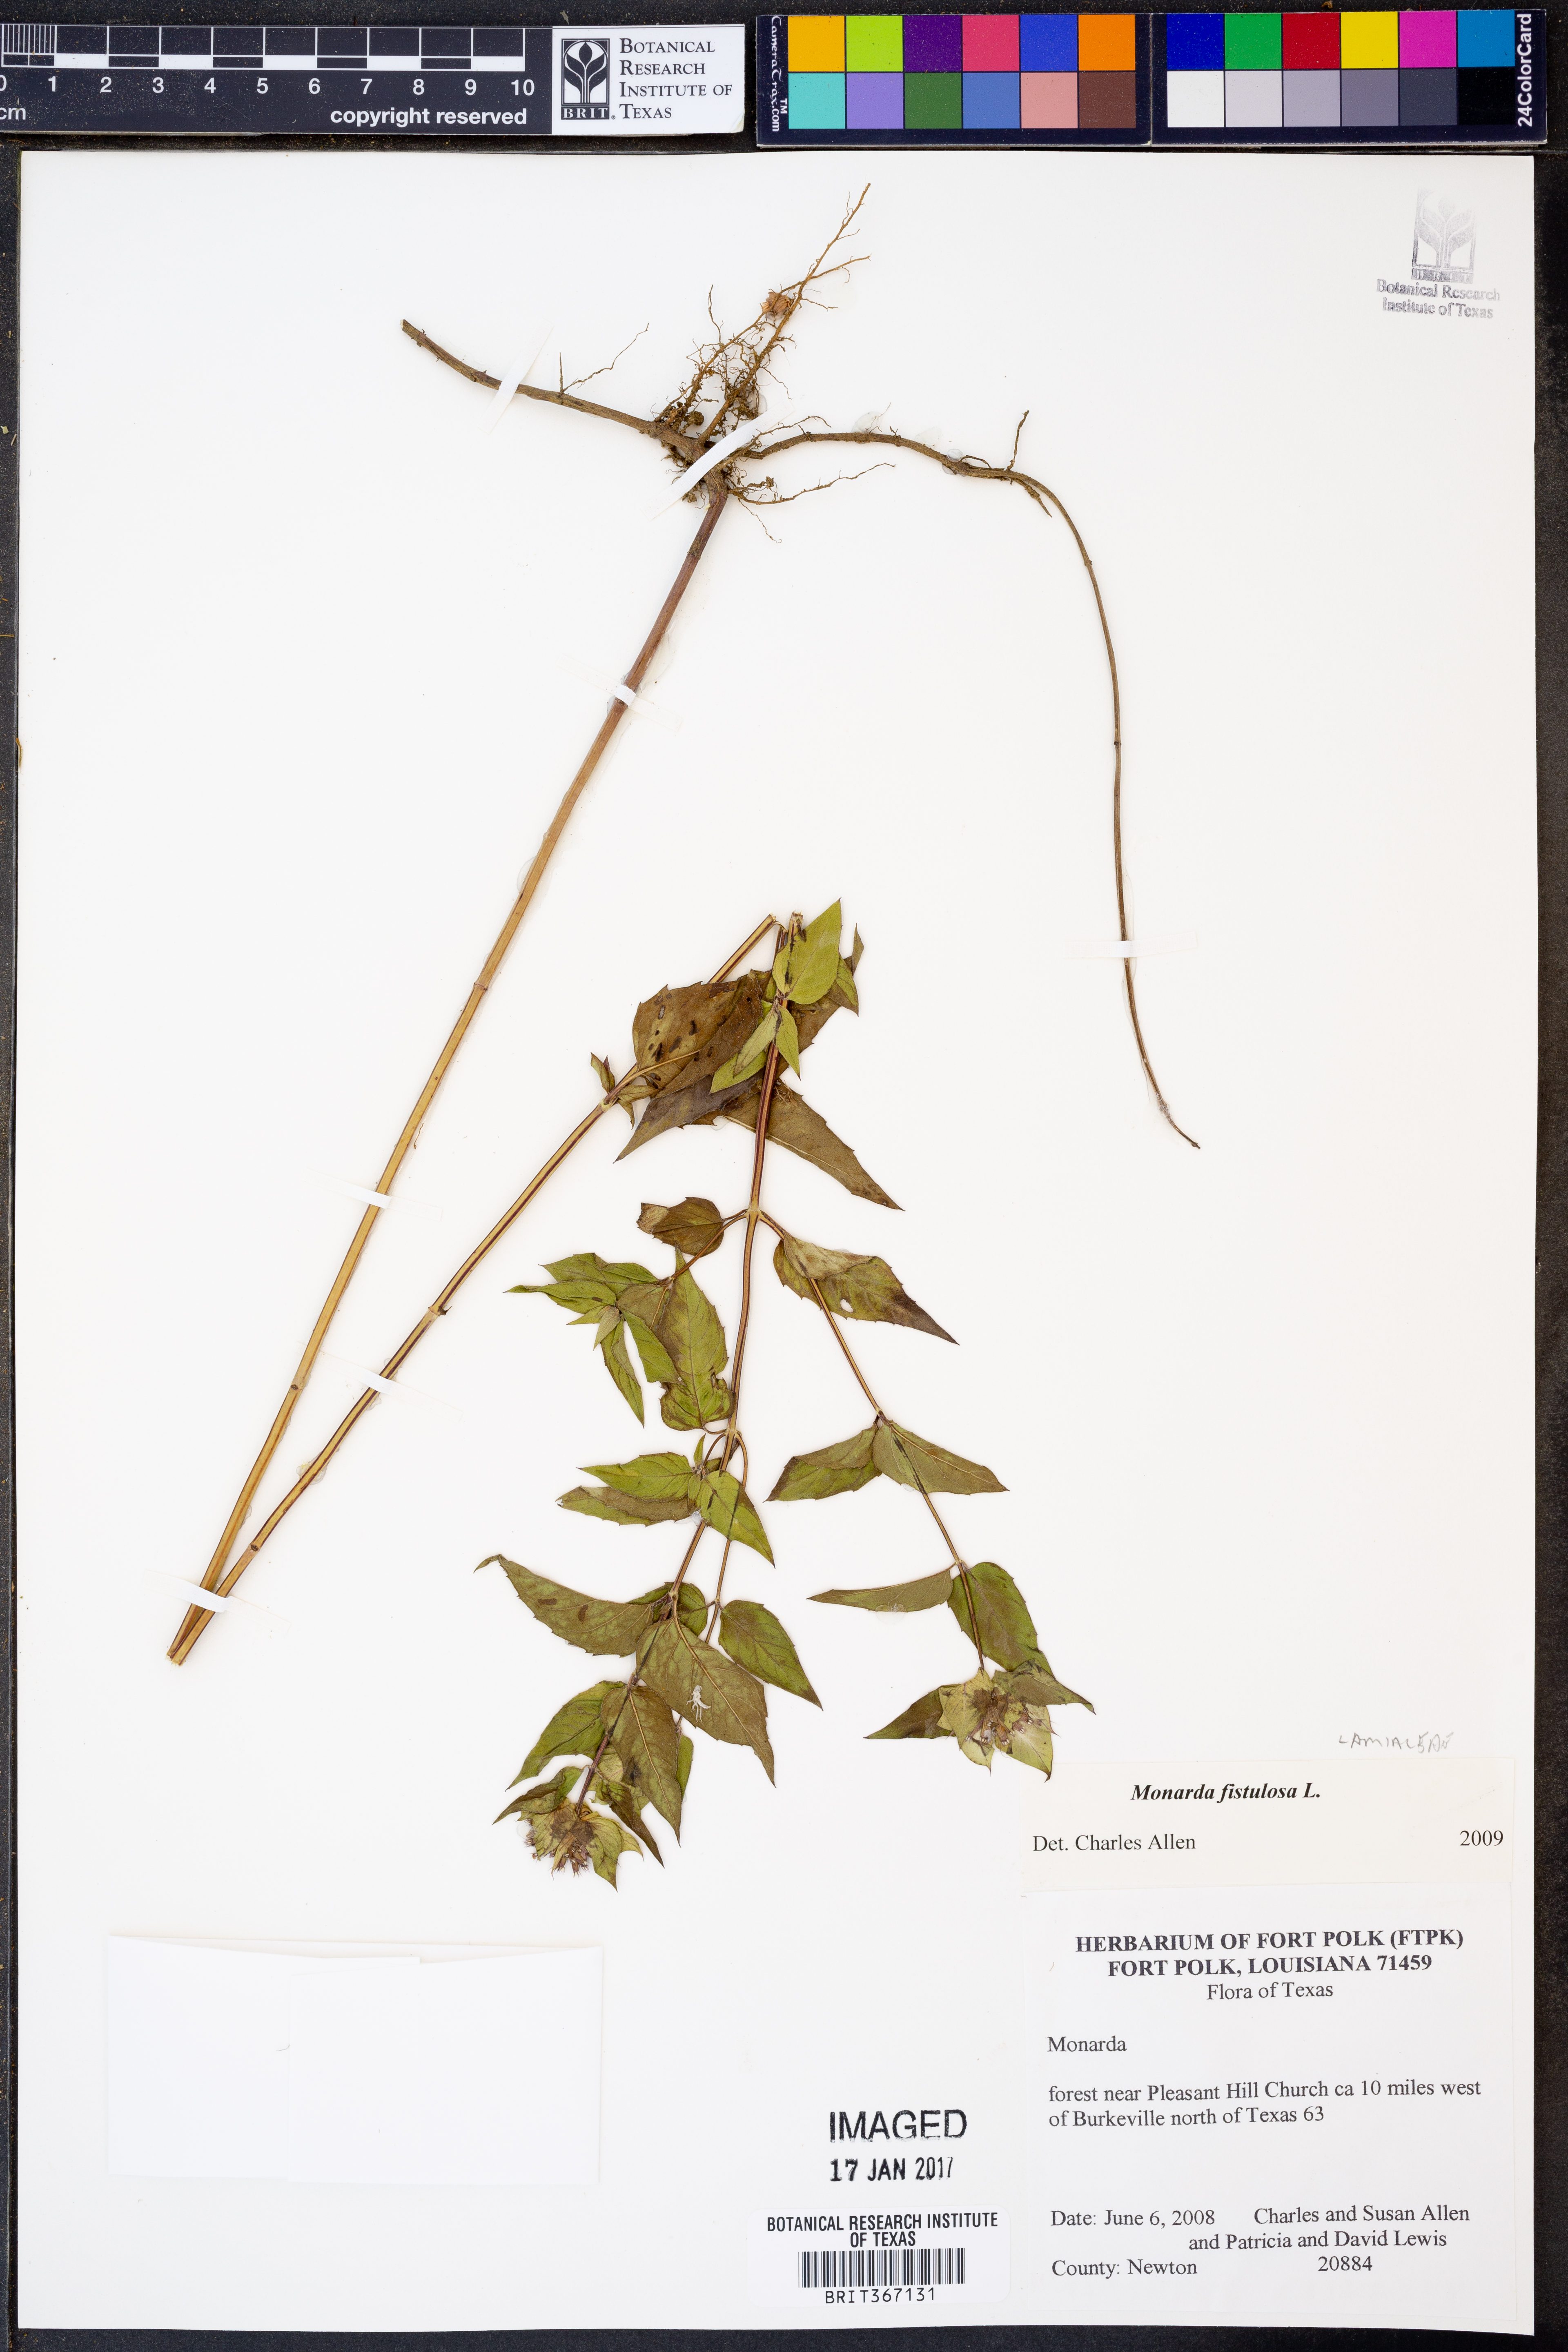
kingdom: Plantae
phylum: Tracheophyta
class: Magnoliopsida
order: Lamiales
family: Lamiaceae
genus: Monarda
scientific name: Monarda fistulosa
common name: Purple beebalm
